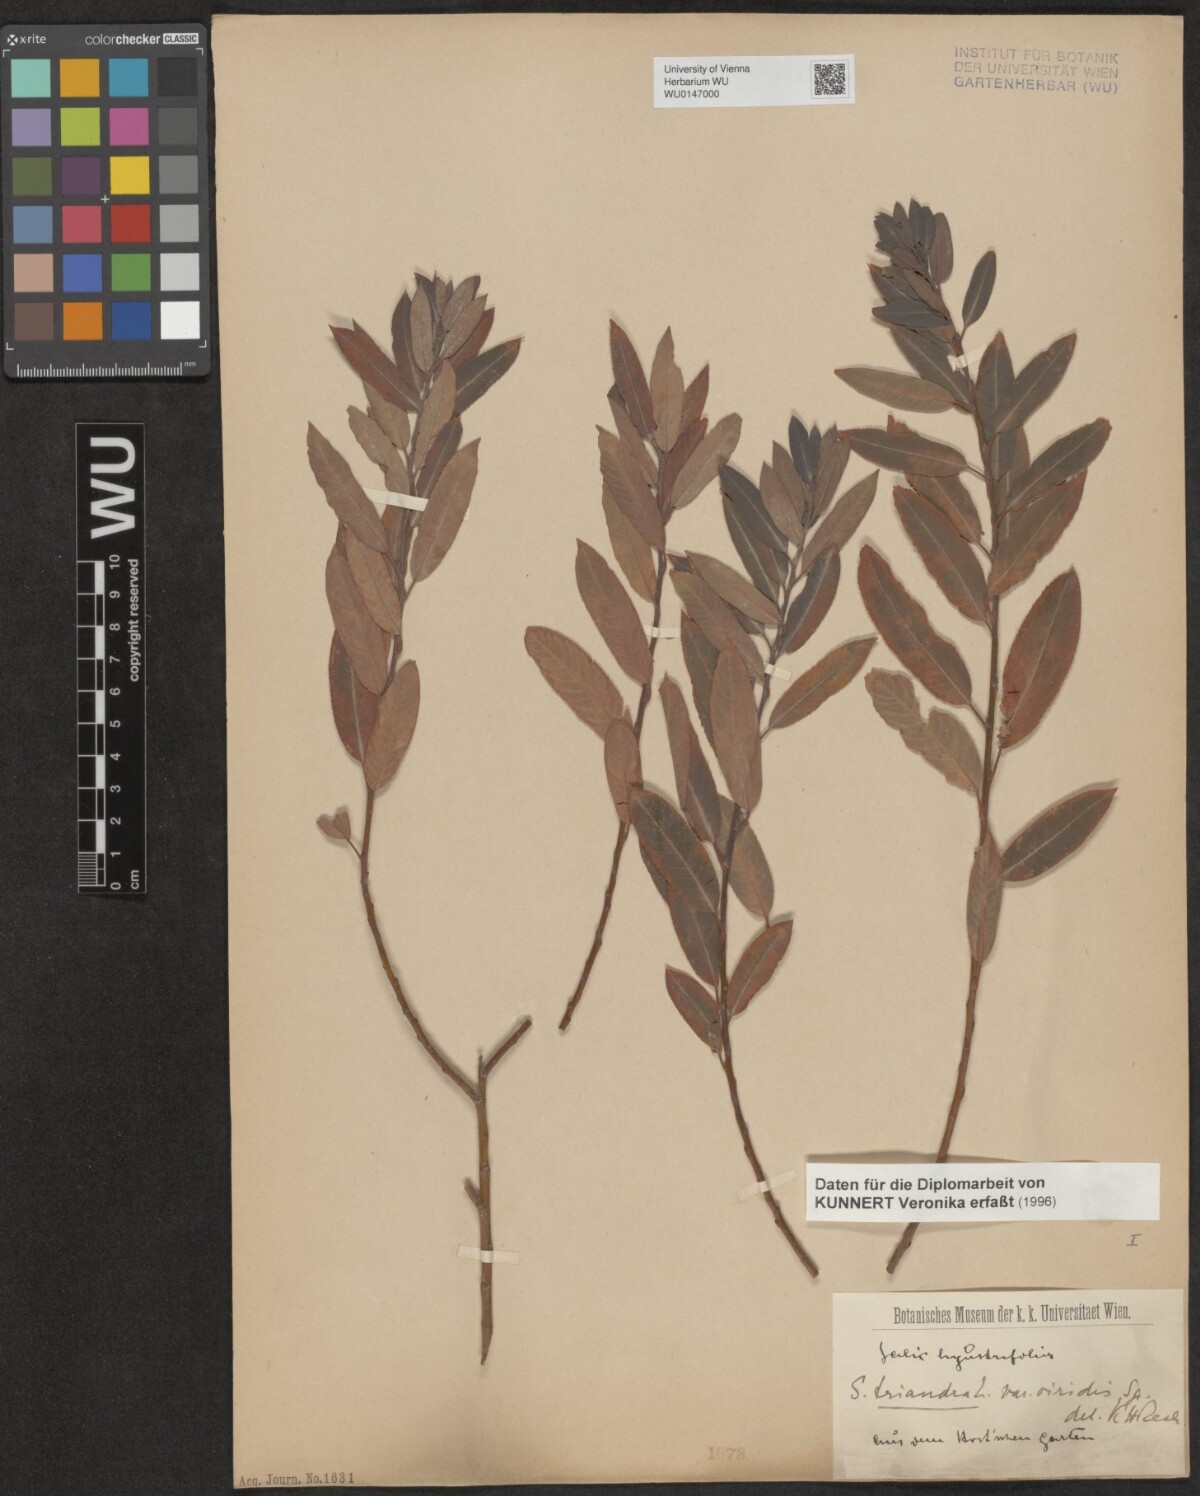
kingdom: Plantae
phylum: Tracheophyta
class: Magnoliopsida
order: Malpighiales
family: Salicaceae
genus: Salix
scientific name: Salix triandra
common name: Almond willow
